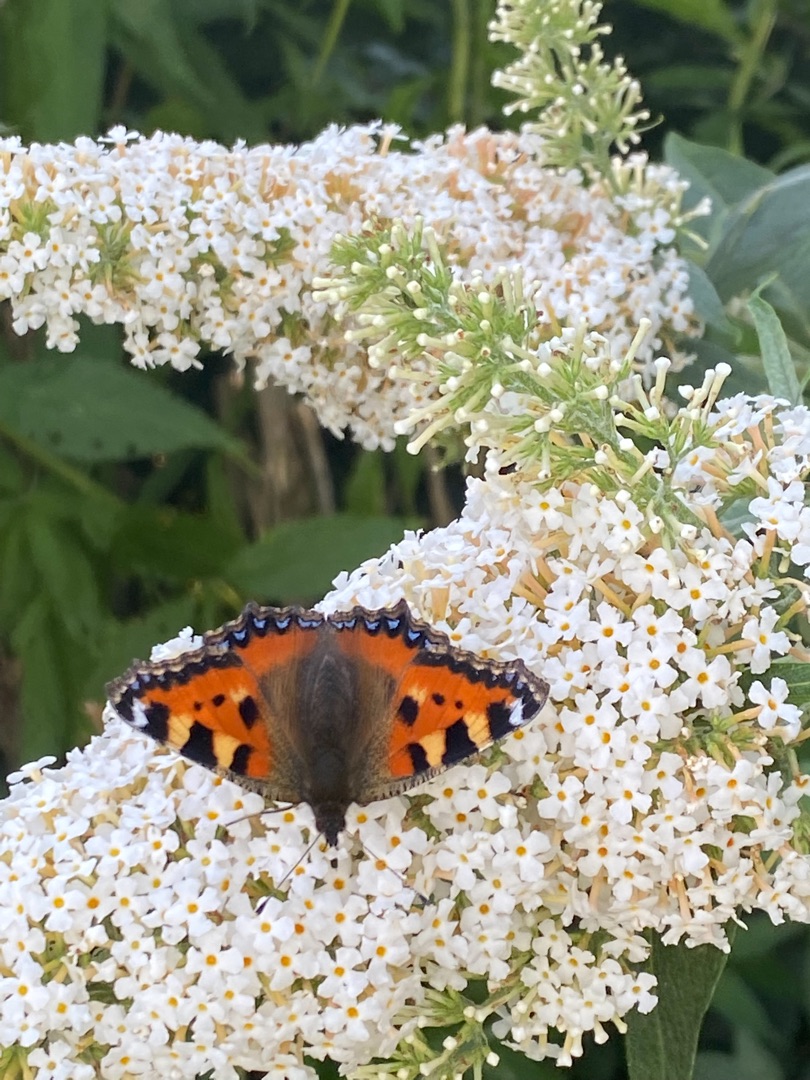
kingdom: Animalia
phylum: Arthropoda
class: Insecta
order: Lepidoptera
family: Nymphalidae
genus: Aglais
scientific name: Aglais urticae
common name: Nældens takvinge
